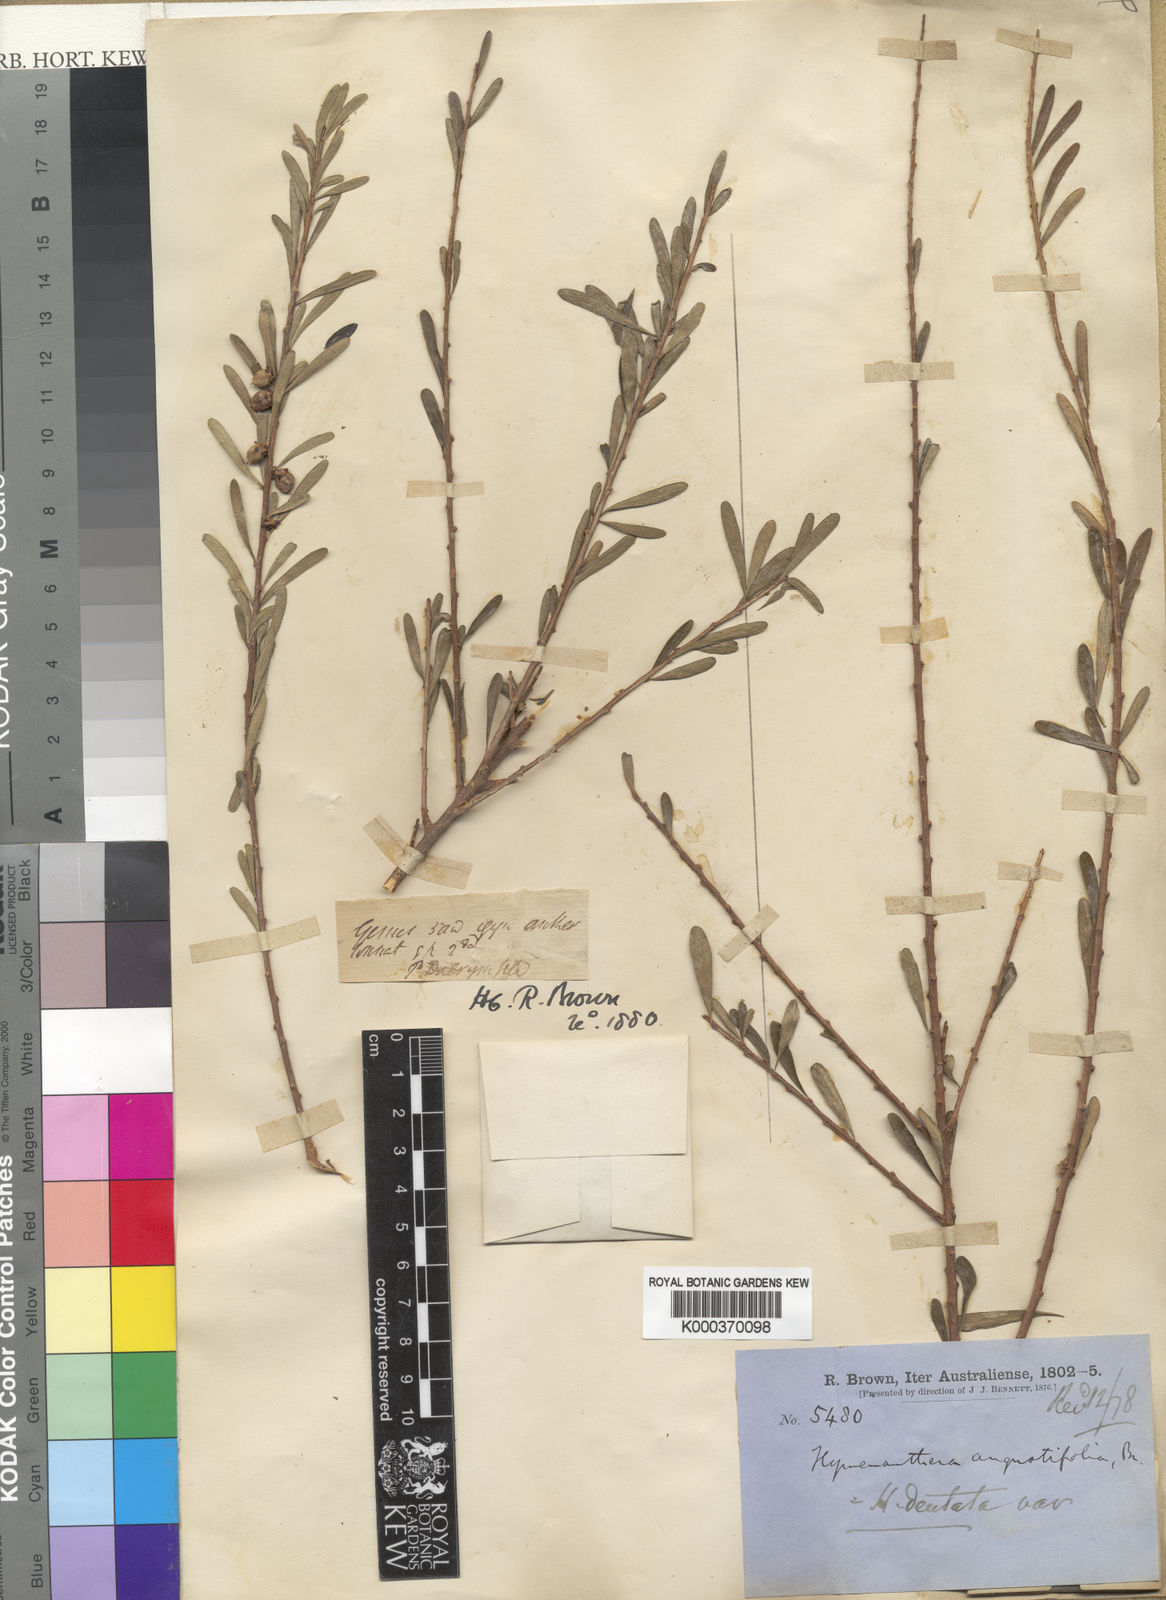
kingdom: Plantae
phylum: Tracheophyta
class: Magnoliopsida
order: Malpighiales
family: Violaceae
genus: Melicytus
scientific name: Melicytus angustifolius
